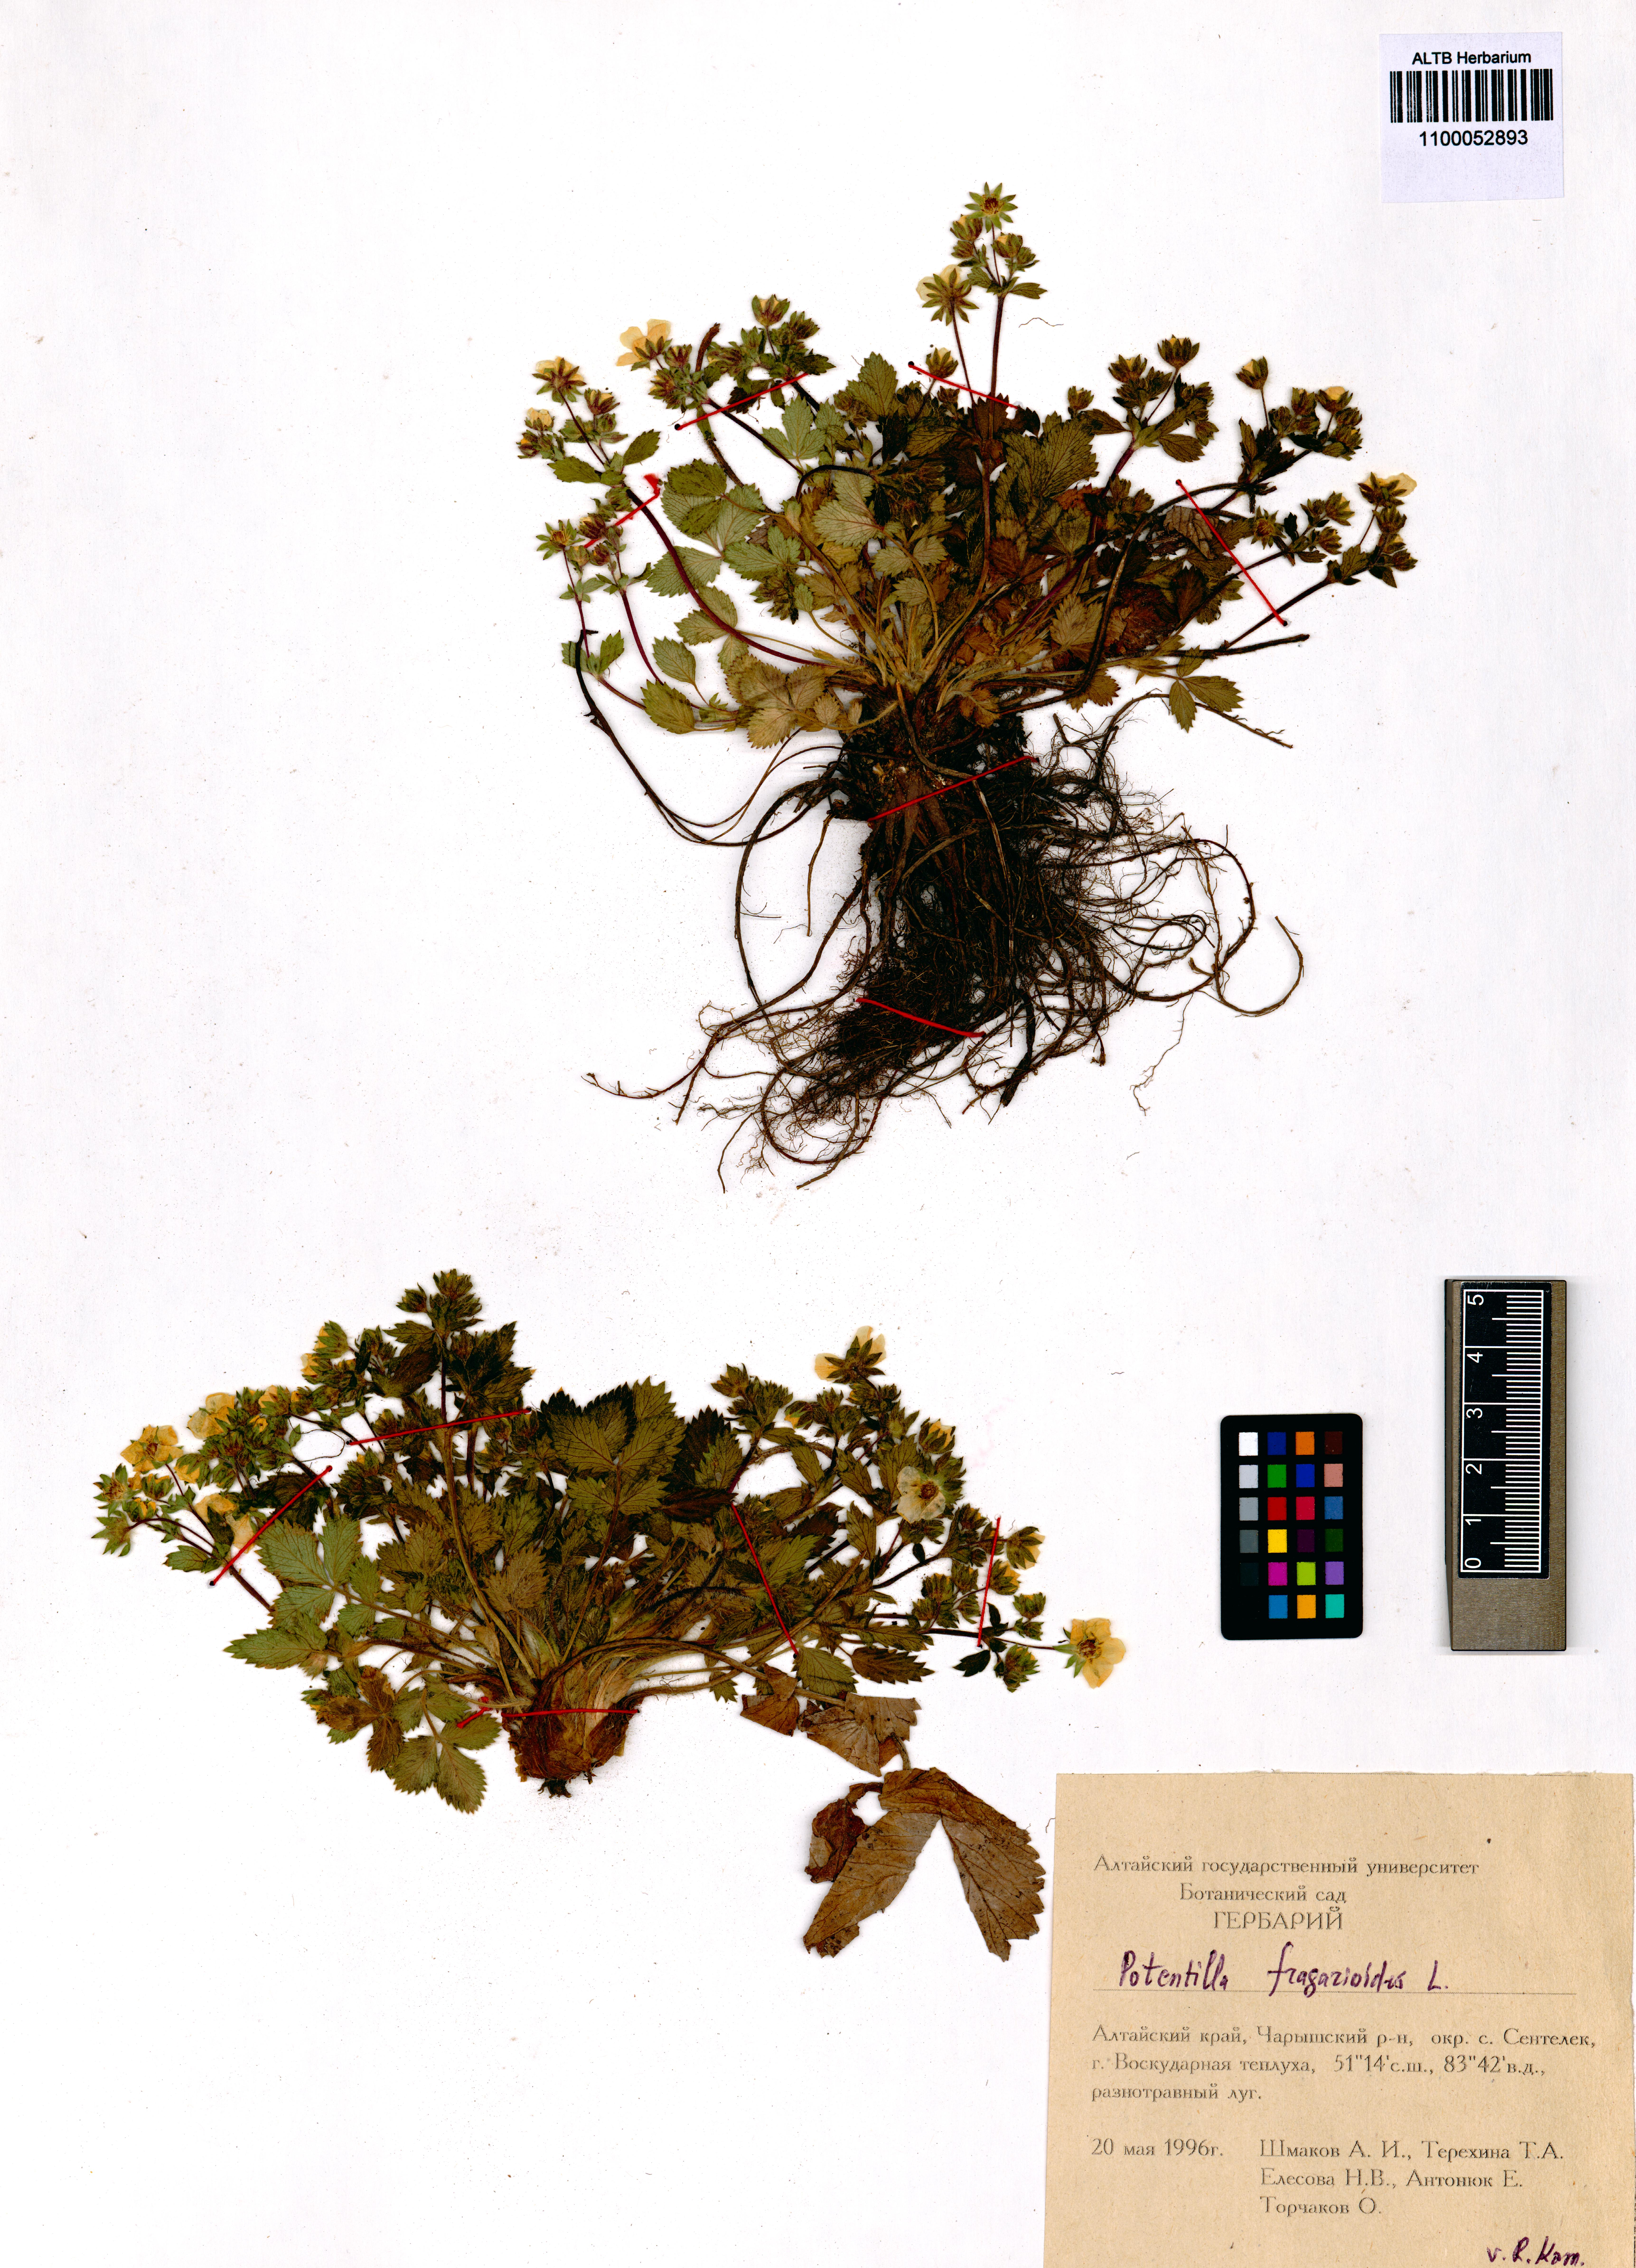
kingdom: Plantae
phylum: Tracheophyta
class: Magnoliopsida
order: Rosales
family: Rosaceae
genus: Potentilla
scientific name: Potentilla fragarioides
